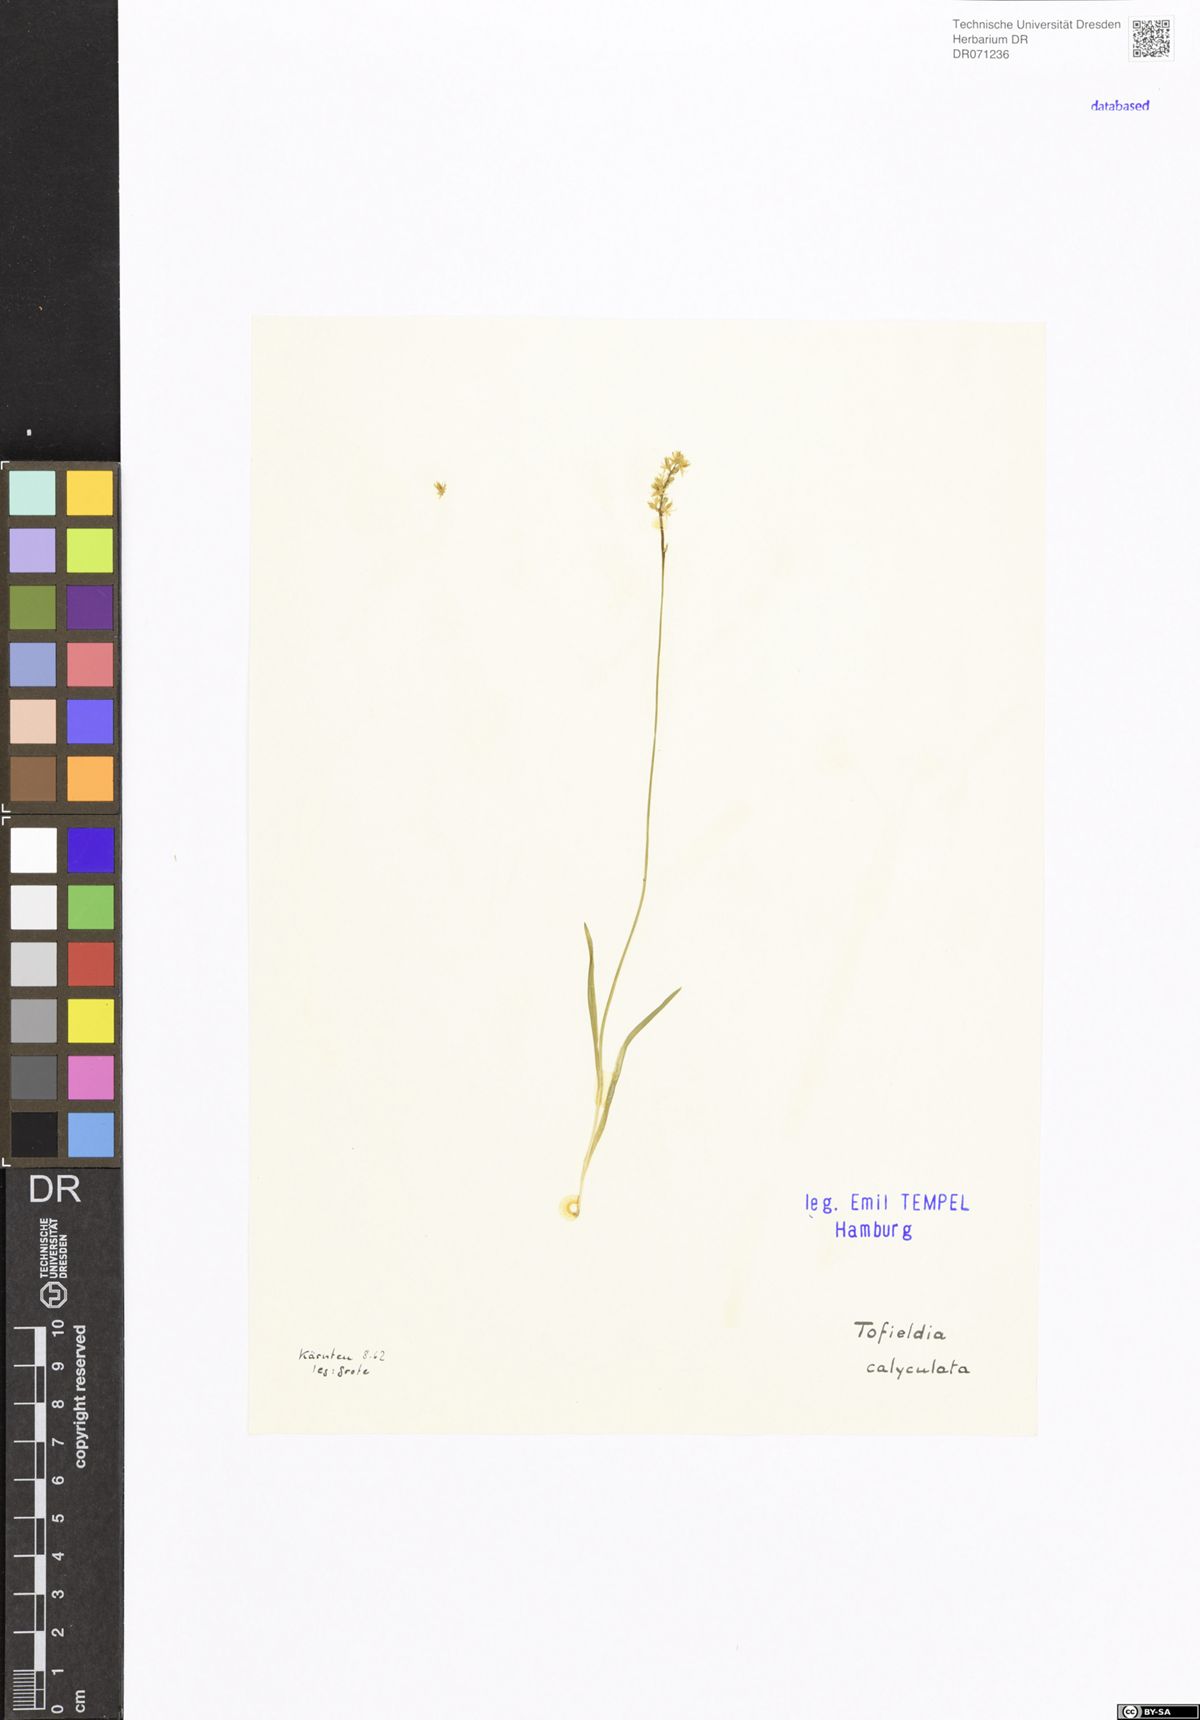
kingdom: Plantae
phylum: Tracheophyta
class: Liliopsida
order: Alismatales
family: Tofieldiaceae
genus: Tofieldia
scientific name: Tofieldia calyculata
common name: German-asphodel
